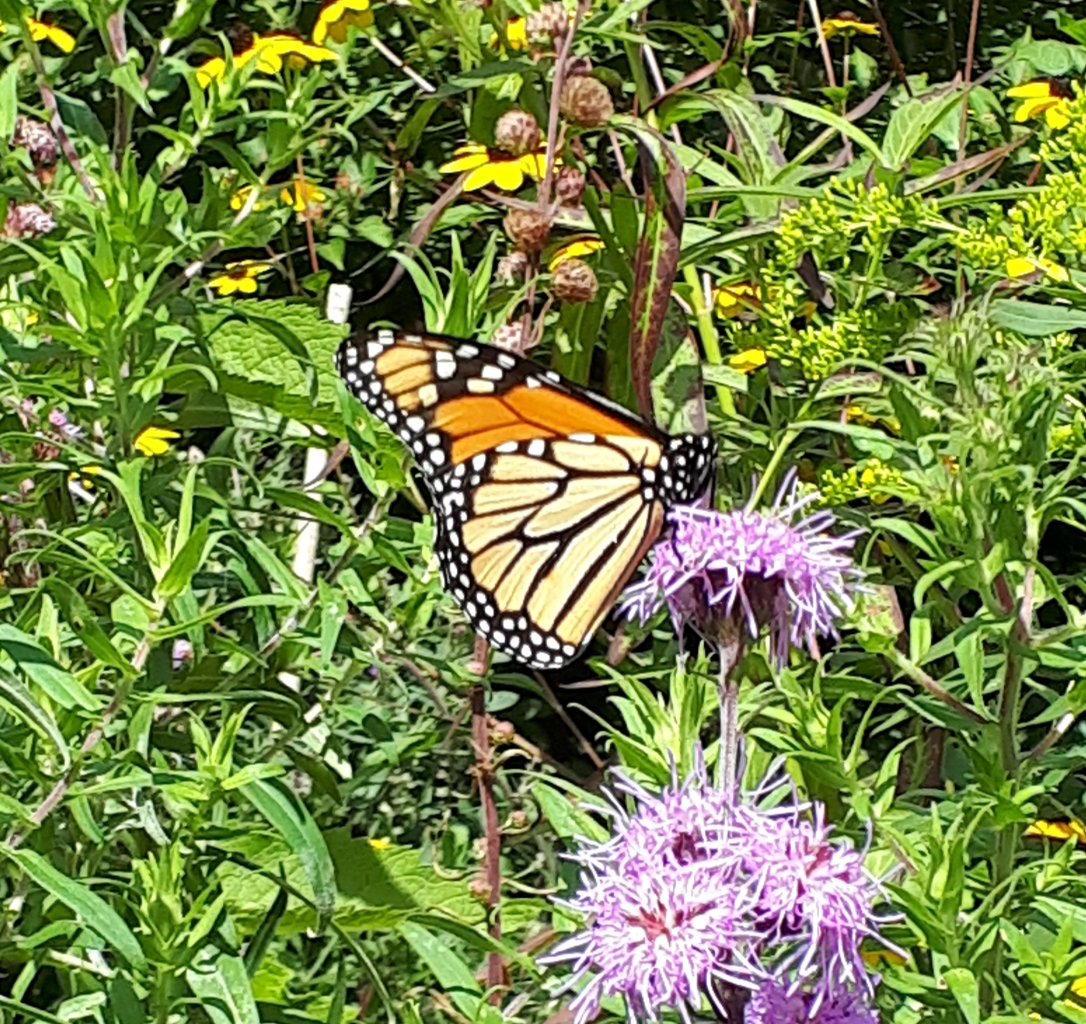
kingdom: Animalia
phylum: Arthropoda
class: Insecta
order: Lepidoptera
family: Nymphalidae
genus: Danaus
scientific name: Danaus plexippus
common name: Monarch
